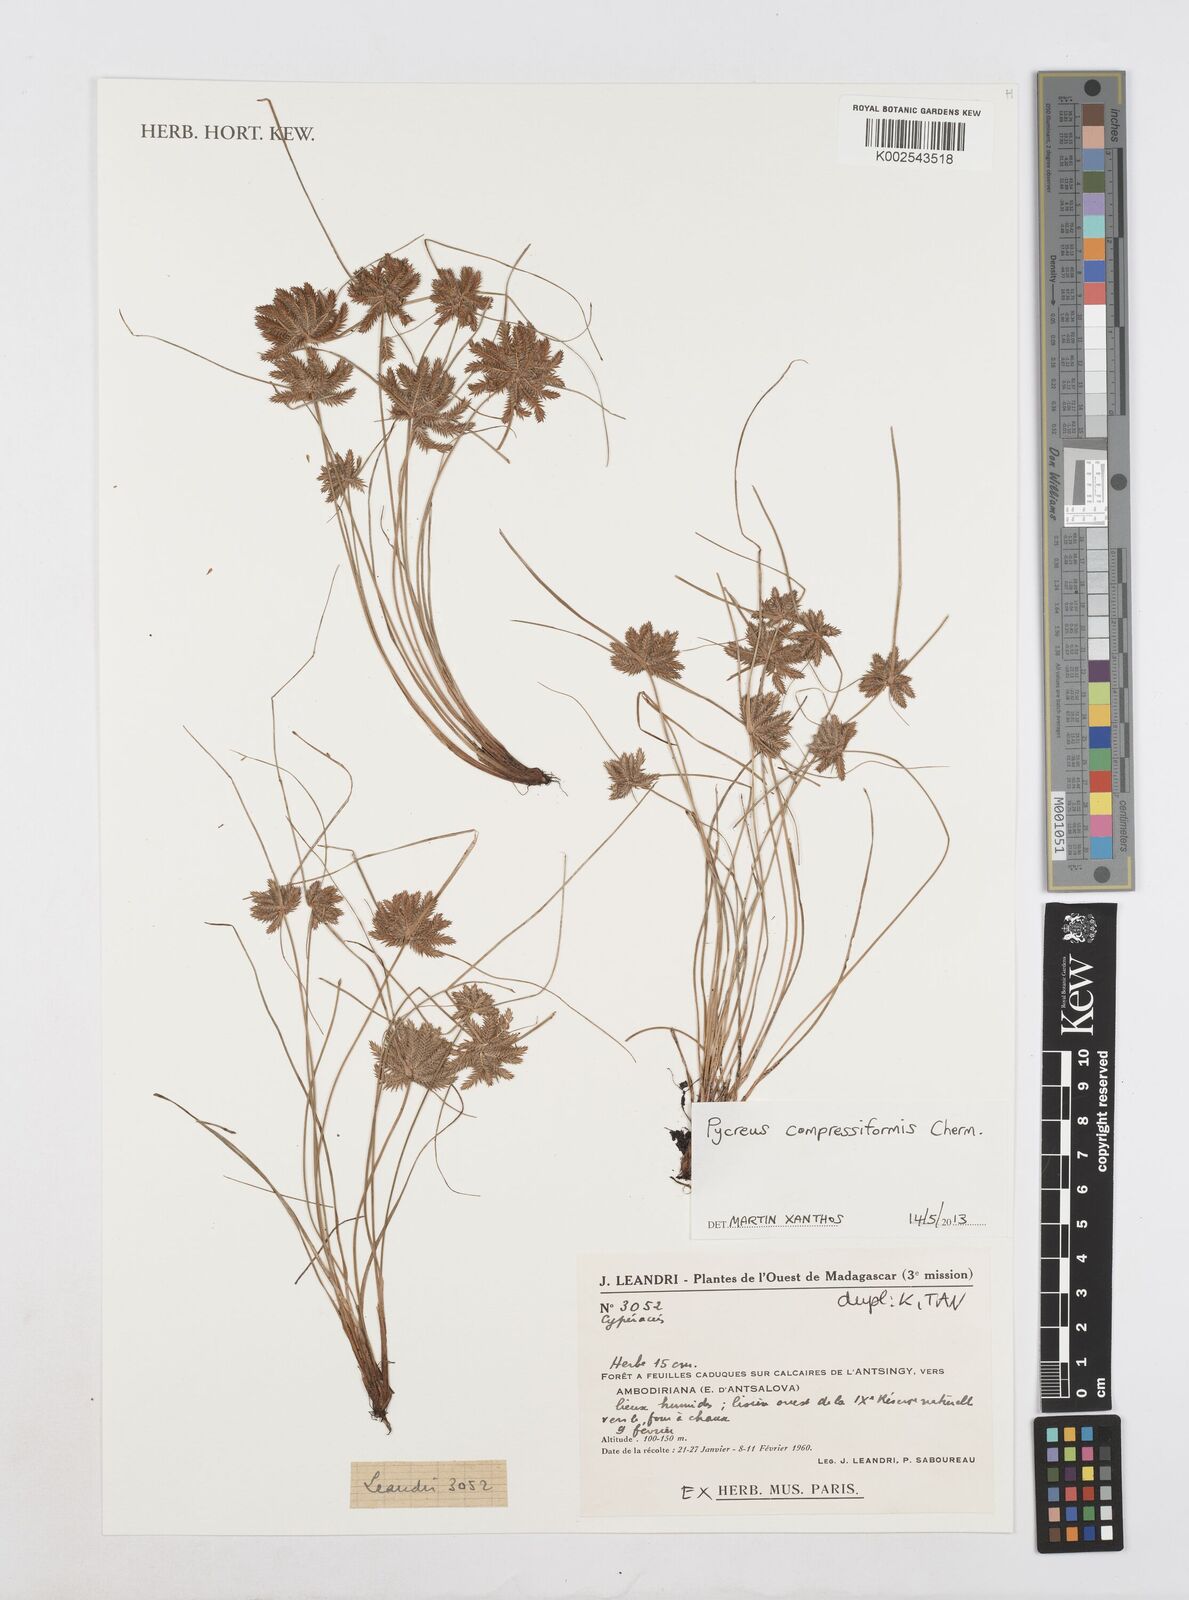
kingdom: Plantae
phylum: Tracheophyta
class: Liliopsida
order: Poales
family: Cyperaceae
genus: Cyperus
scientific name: Cyperus compressiformis
